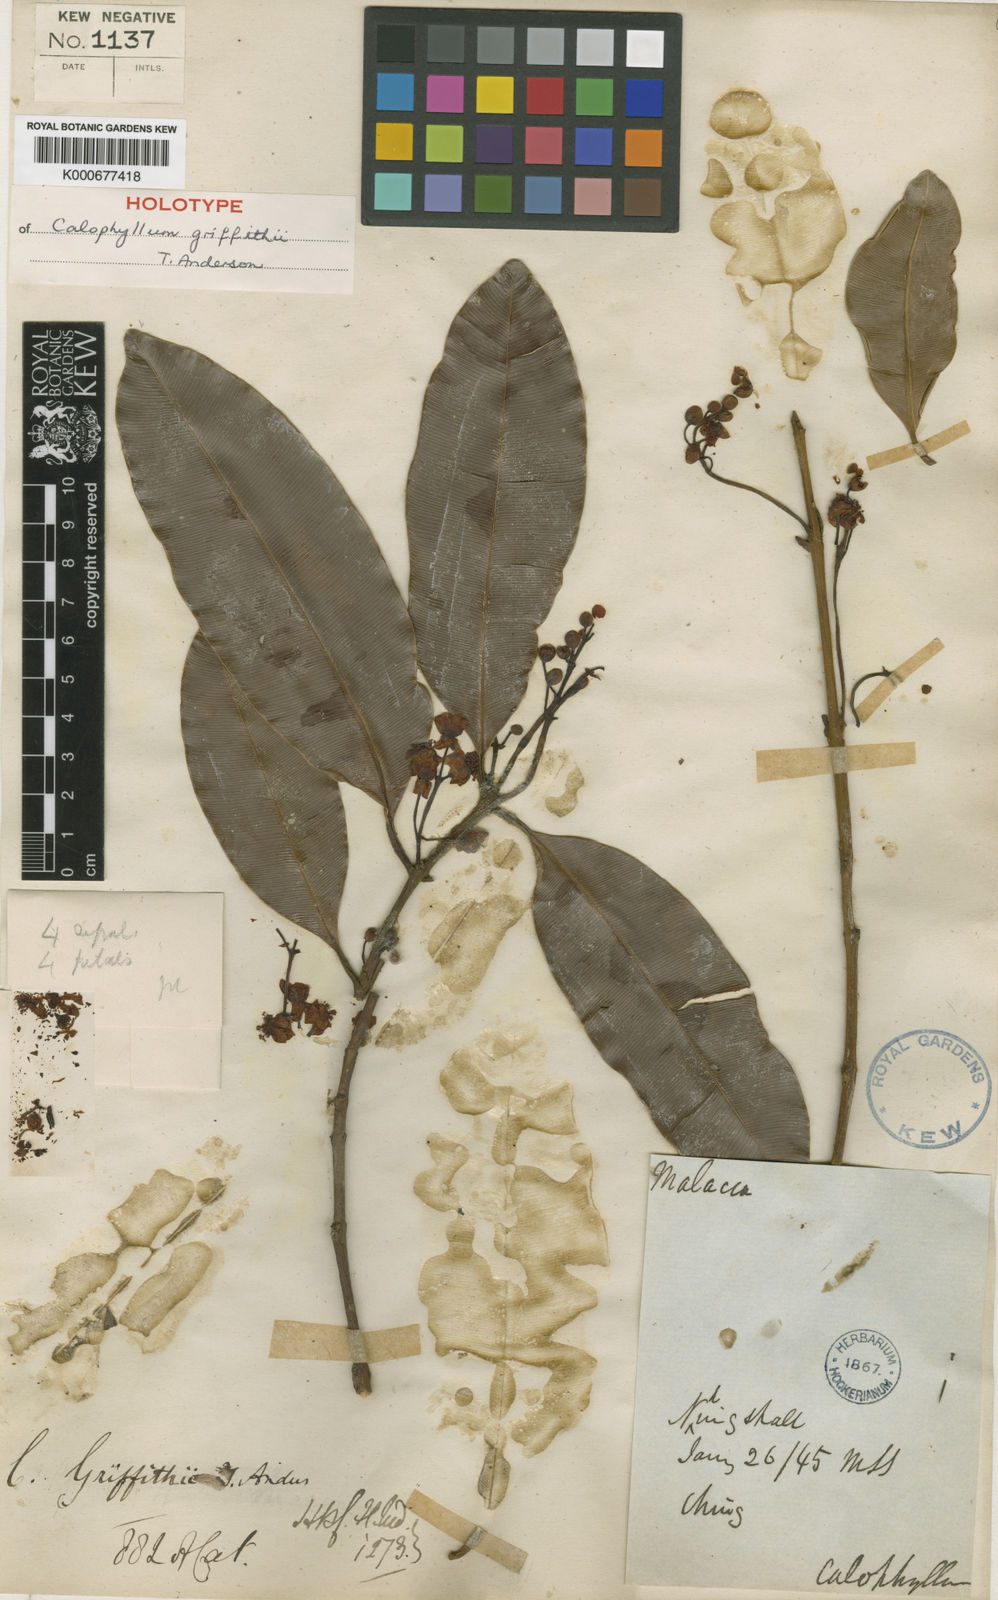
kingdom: Plantae
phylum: Tracheophyta
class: Magnoliopsida
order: Malpighiales
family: Calophyllaceae
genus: Calophyllum
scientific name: Calophyllum tetrapterum
